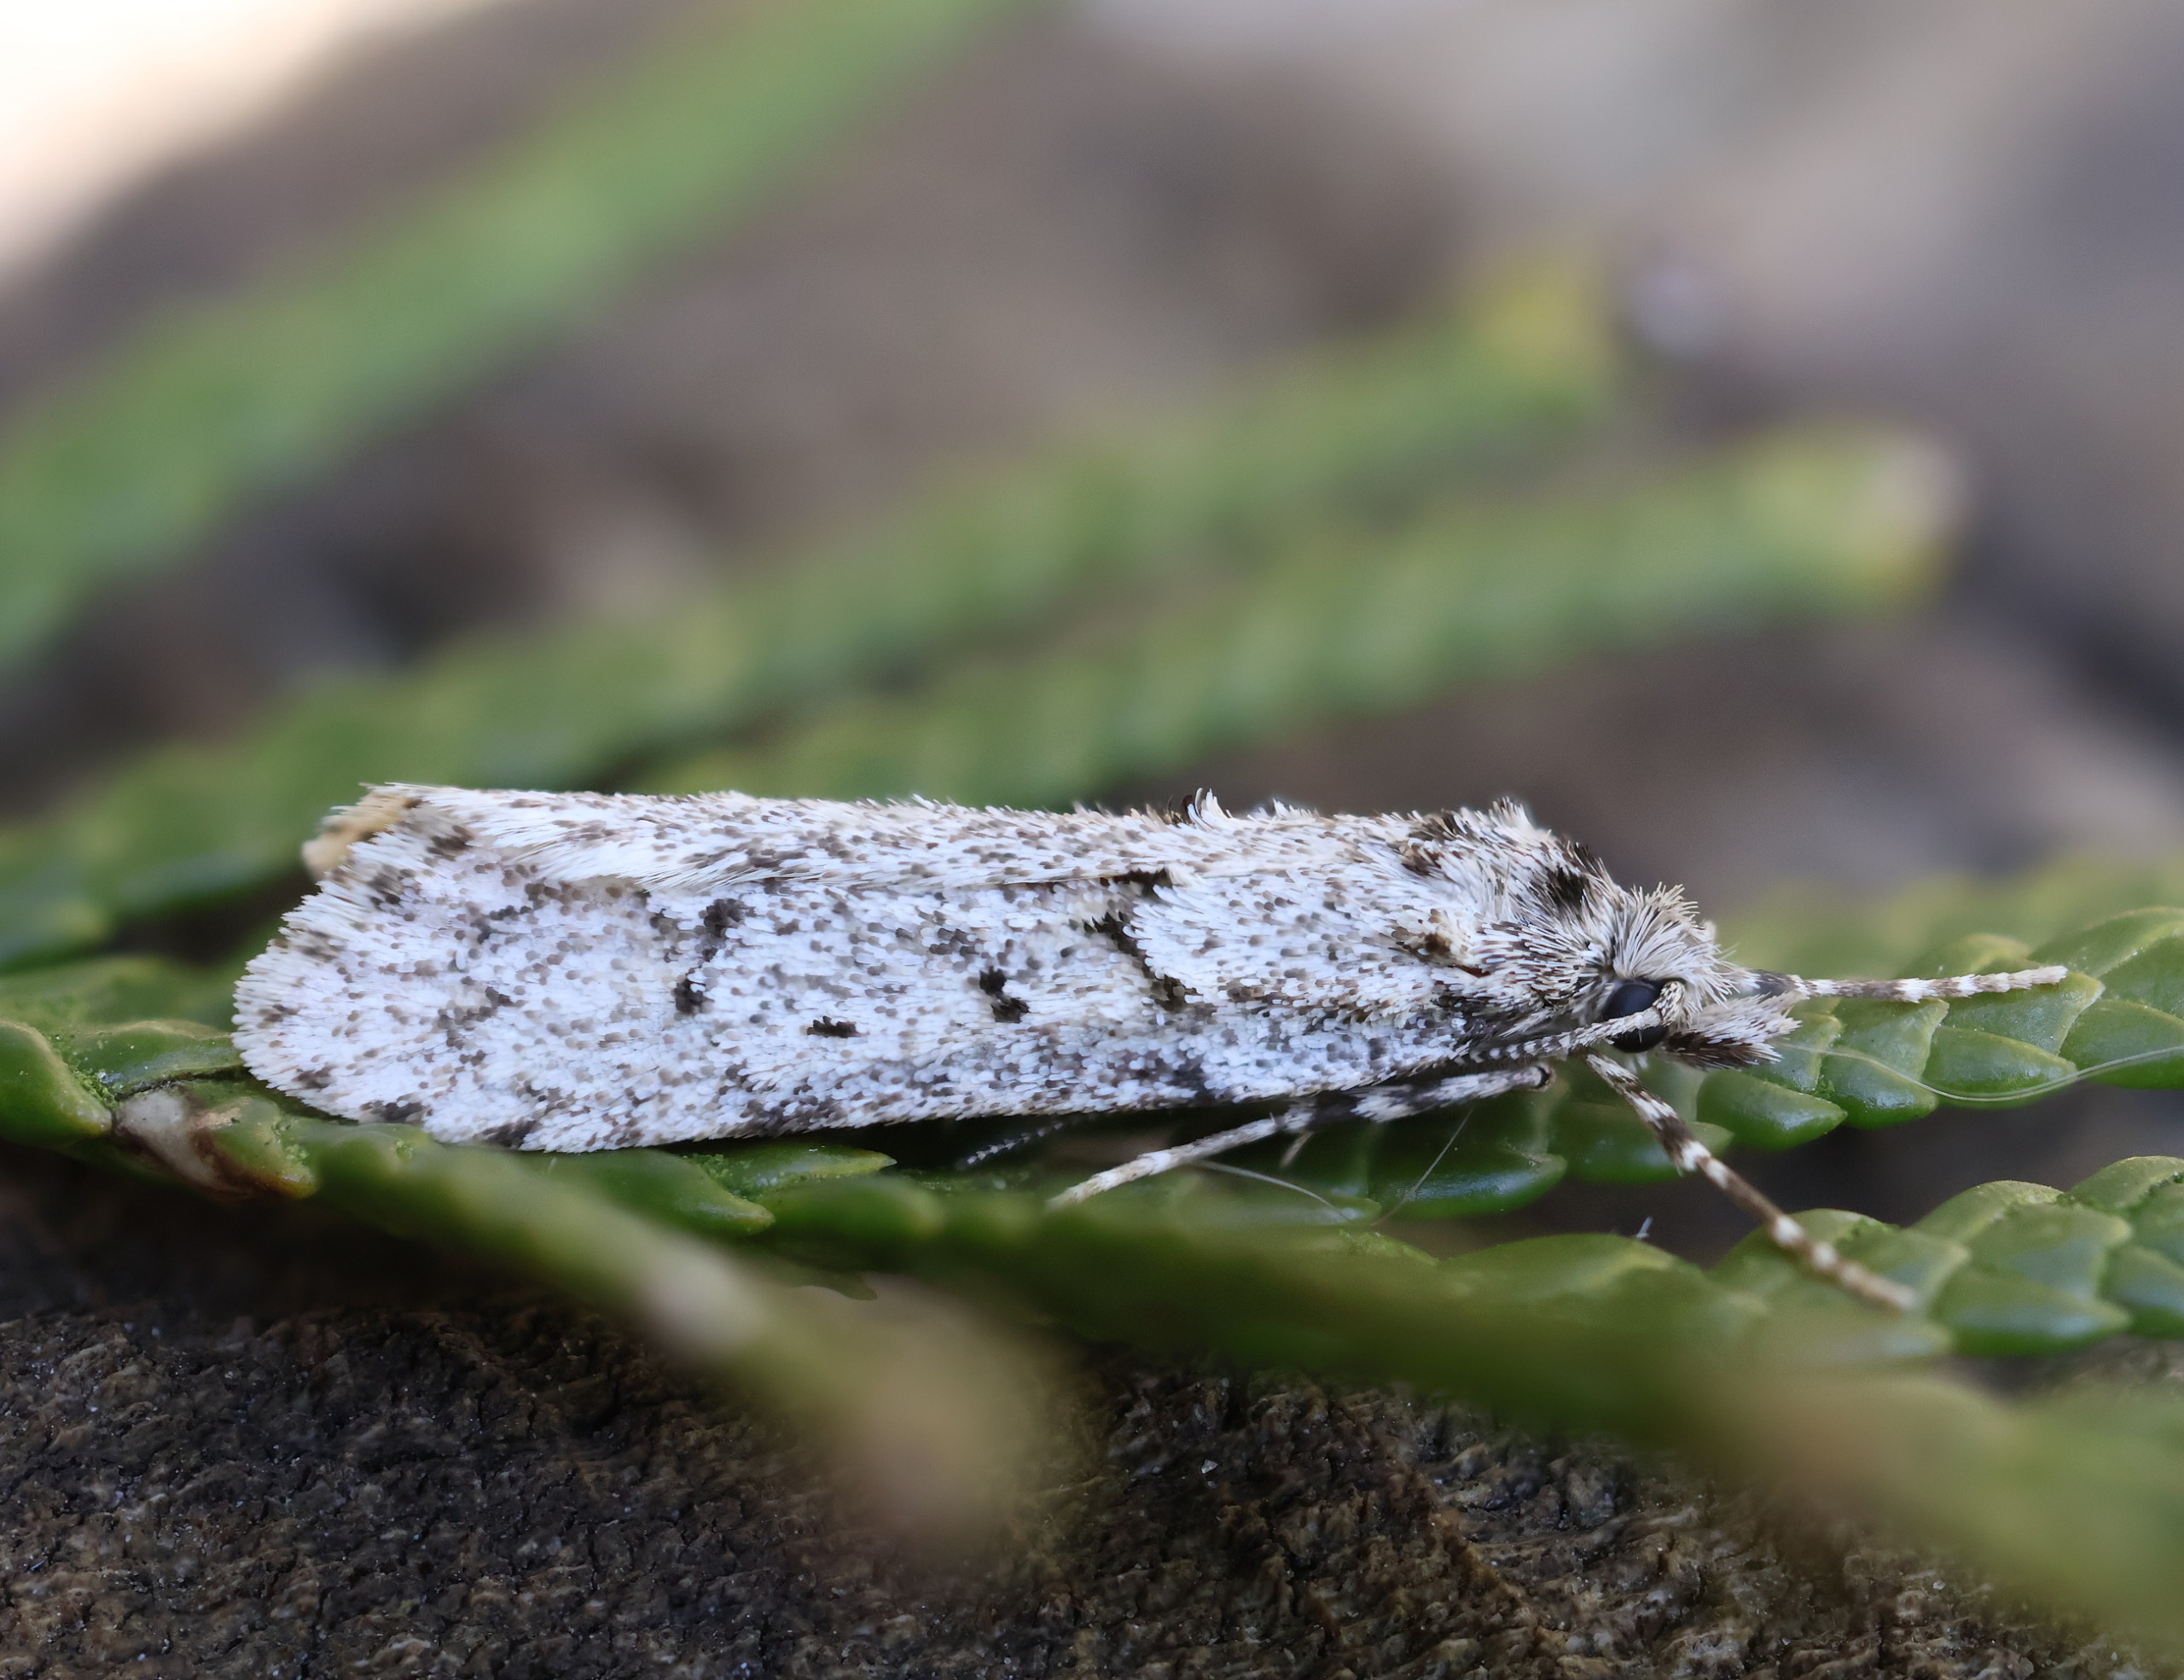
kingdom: Animalia
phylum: Arthropoda
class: Insecta
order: Lepidoptera
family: Lypusidae
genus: Diurnea
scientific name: Diurnea fagella
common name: Bøgeprydvinge
